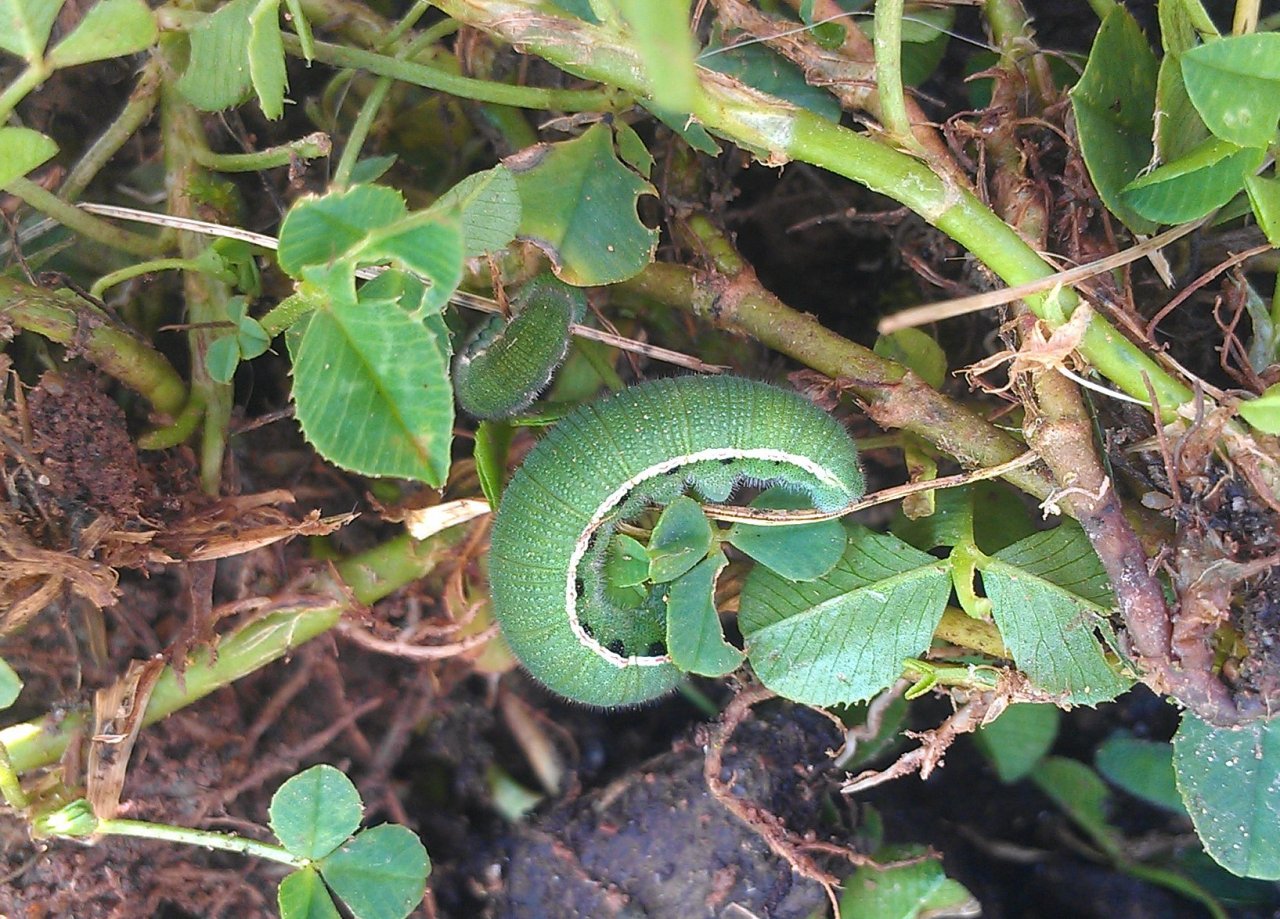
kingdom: Animalia
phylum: Arthropoda
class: Insecta
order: Lepidoptera
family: Pieridae
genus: Colias
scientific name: Colias philodice
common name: Clouded Sulphur
